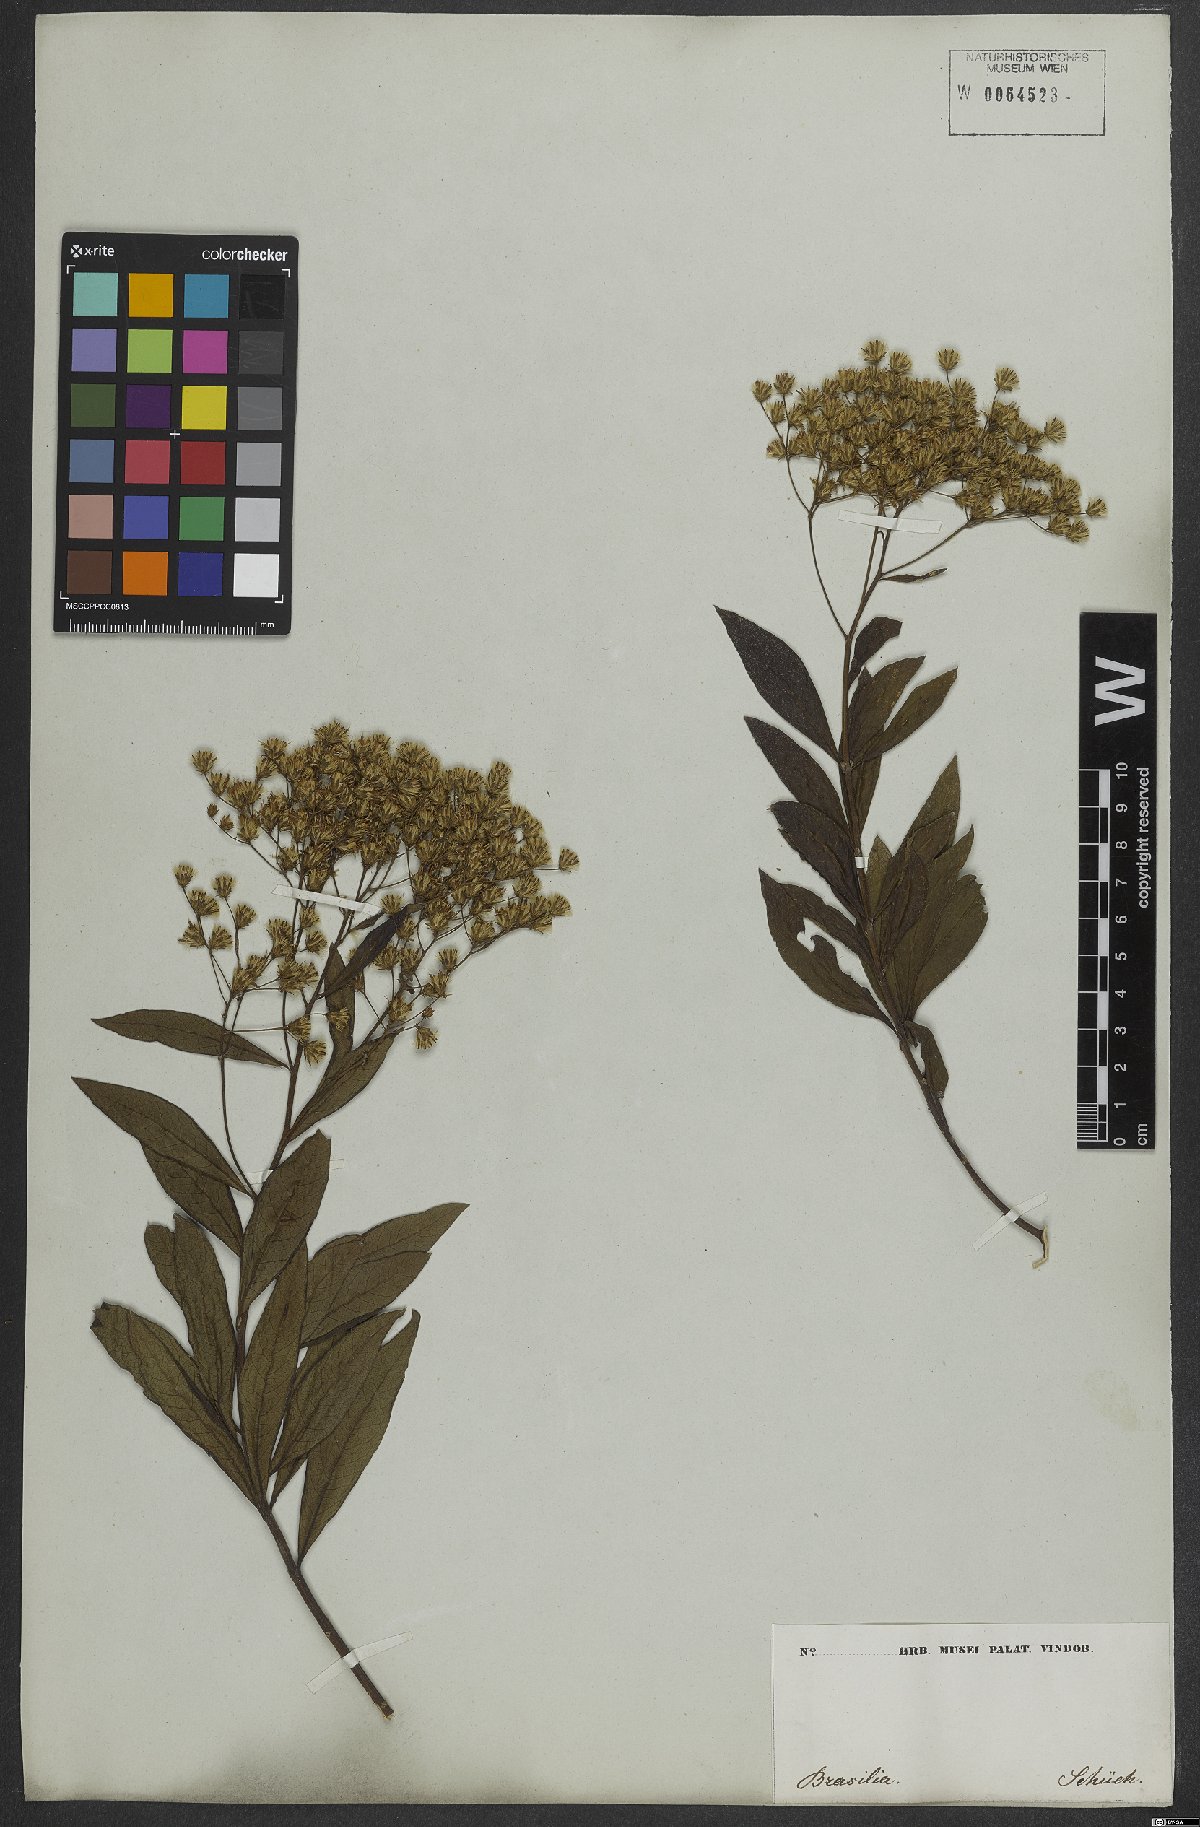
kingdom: Plantae
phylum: Tracheophyta
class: Magnoliopsida
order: Asterales
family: Asteraceae
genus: Vernonanthura
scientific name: Vernonanthura beyrichii
